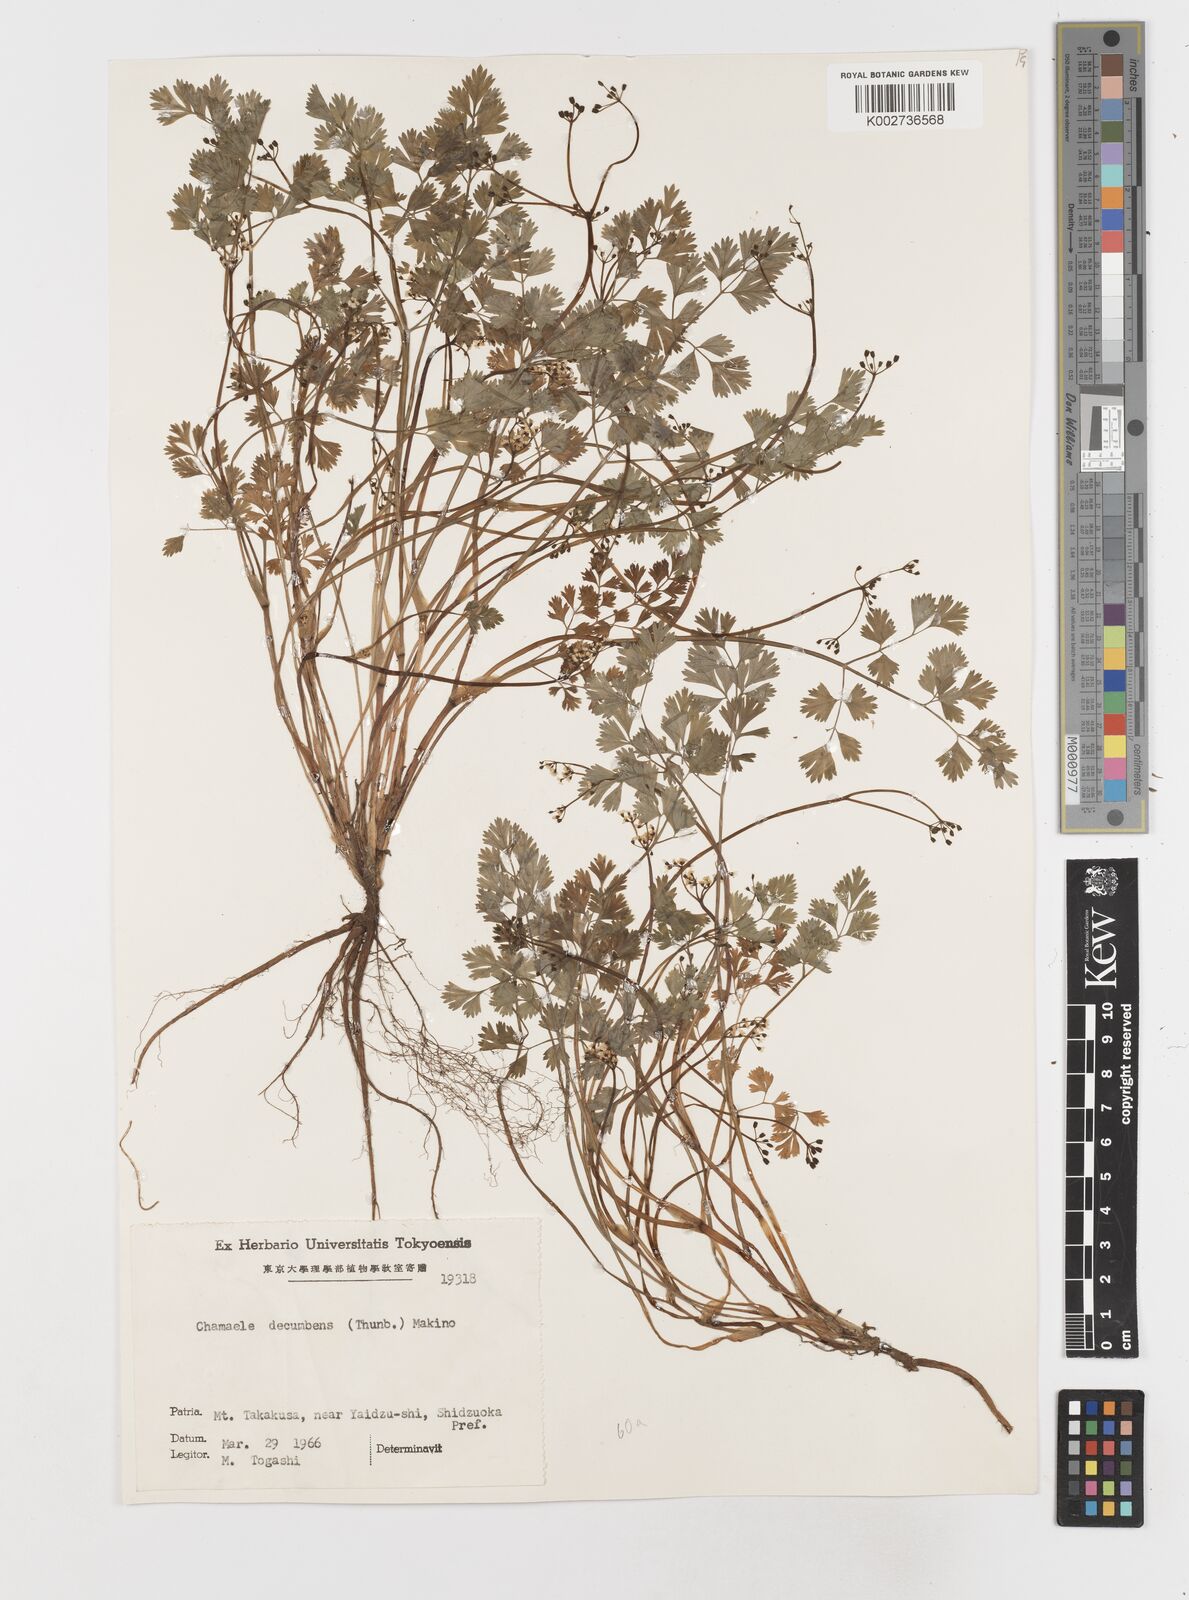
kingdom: Plantae
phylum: Tracheophyta
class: Magnoliopsida
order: Apiales
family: Apiaceae
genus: Aegopodium
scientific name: Aegopodium decumbens
